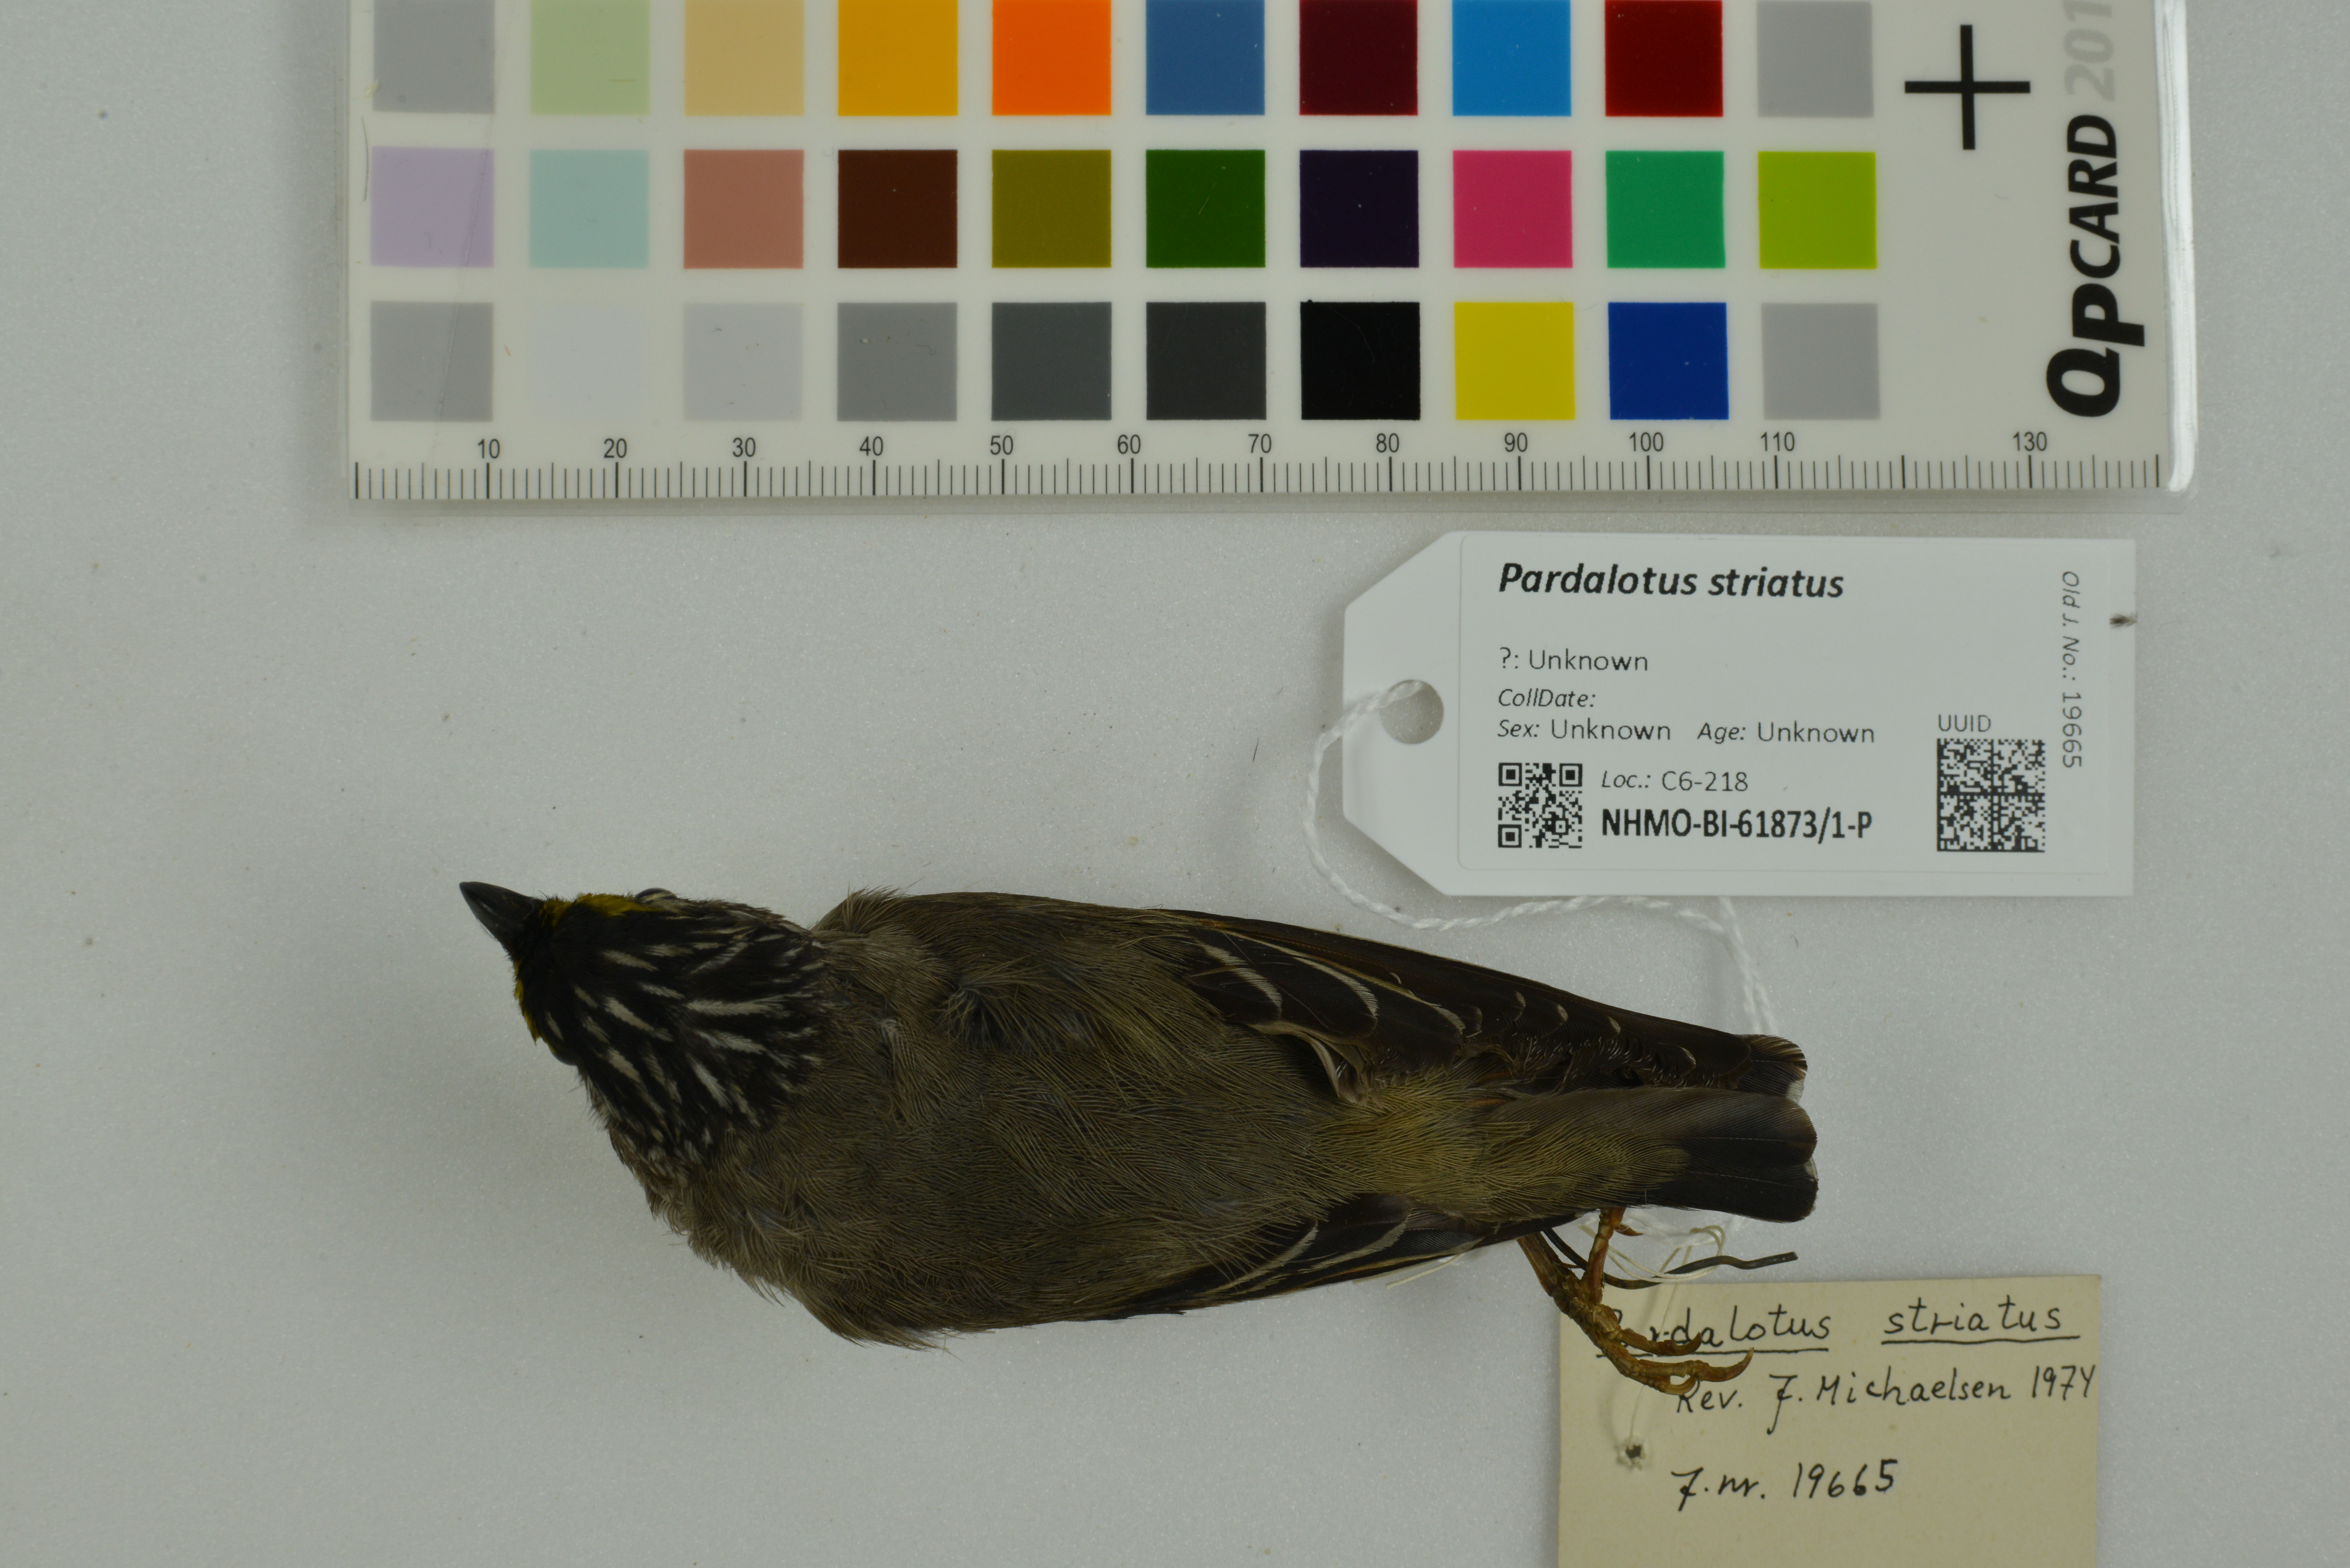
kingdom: Animalia
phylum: Chordata
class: Aves
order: Passeriformes
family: Pardalotidae
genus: Pardalotus
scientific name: Pardalotus striatus
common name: Striated pardalote
